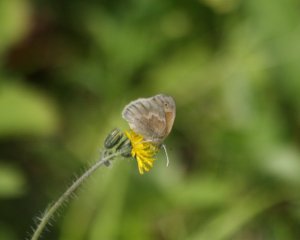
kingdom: Animalia
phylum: Arthropoda
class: Insecta
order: Lepidoptera
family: Nymphalidae
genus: Coenonympha
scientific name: Coenonympha tullia
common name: Large Heath
